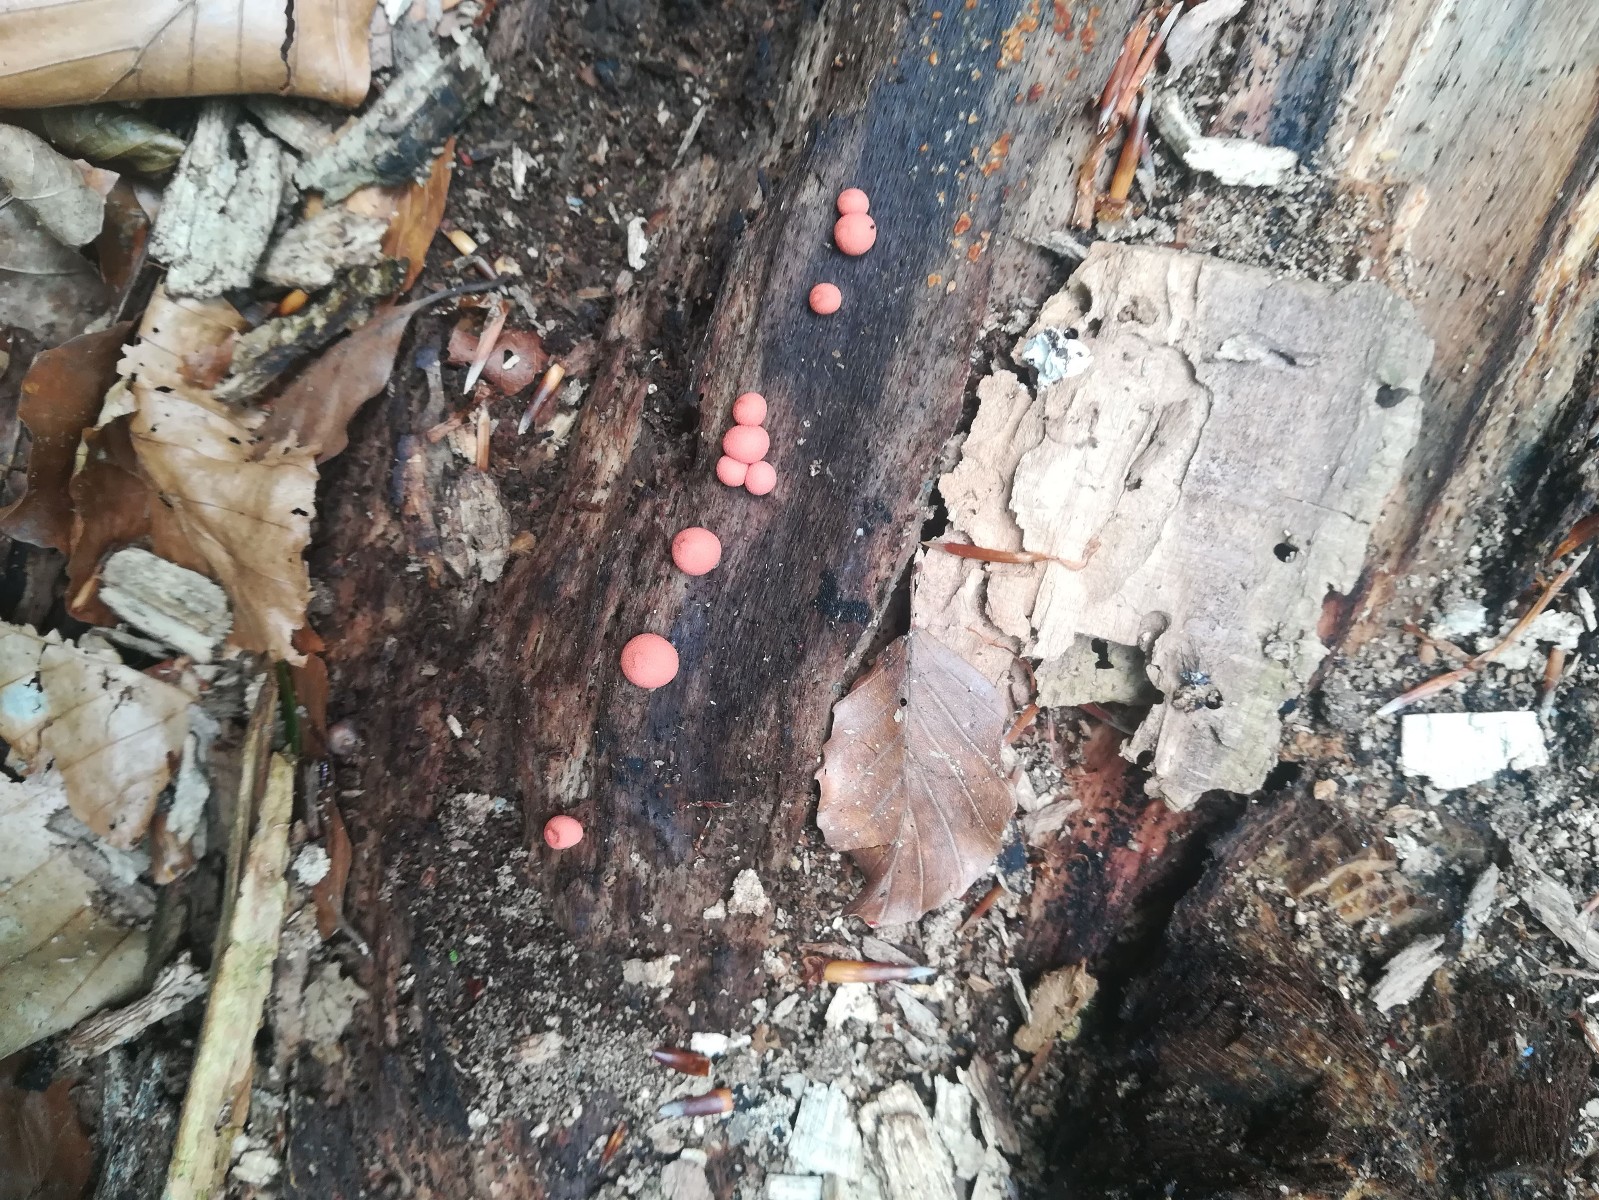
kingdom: Protozoa
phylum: Mycetozoa
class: Myxomycetes
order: Cribrariales
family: Tubiferaceae
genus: Lycogala
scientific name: Lycogala epidendrum
